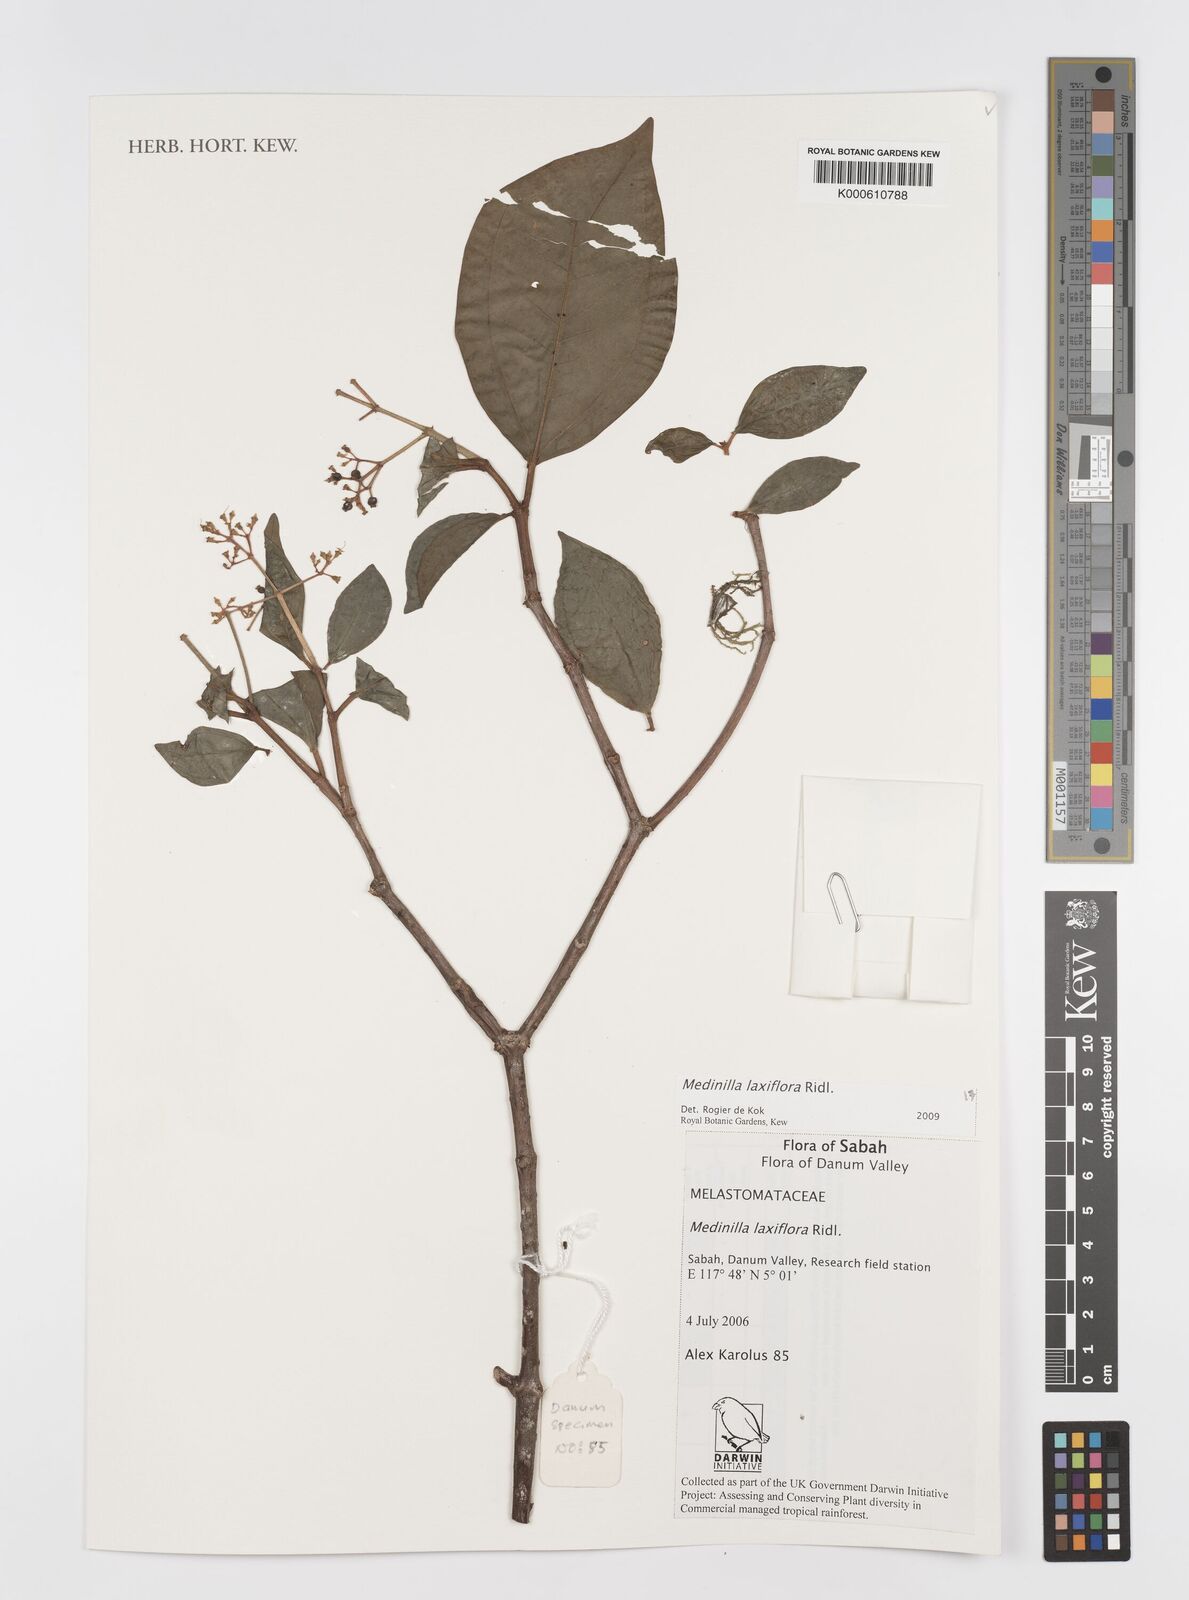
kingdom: Plantae
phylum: Tracheophyta
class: Magnoliopsida
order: Myrtales
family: Melastomataceae
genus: Medinilla
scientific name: Medinilla laxiflora
